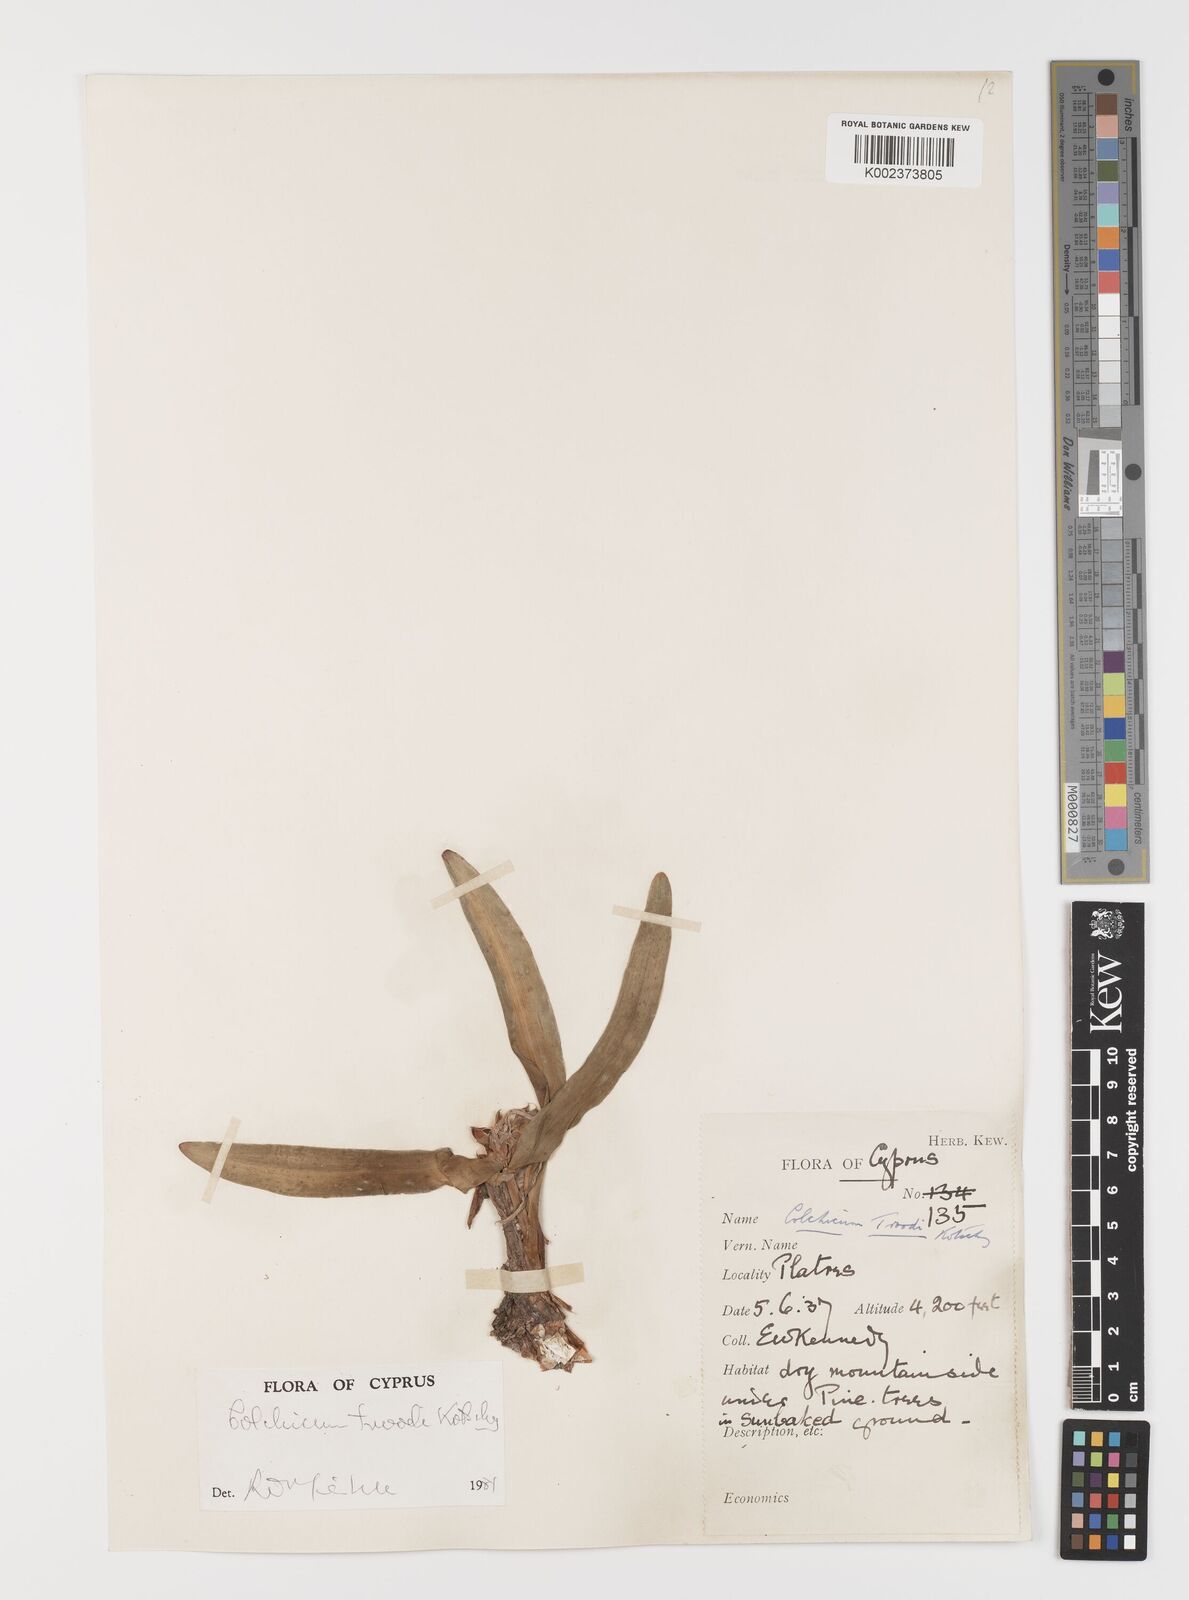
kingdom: Plantae
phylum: Tracheophyta
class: Liliopsida
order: Liliales
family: Colchicaceae
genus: Colchicum
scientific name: Colchicum troodi
